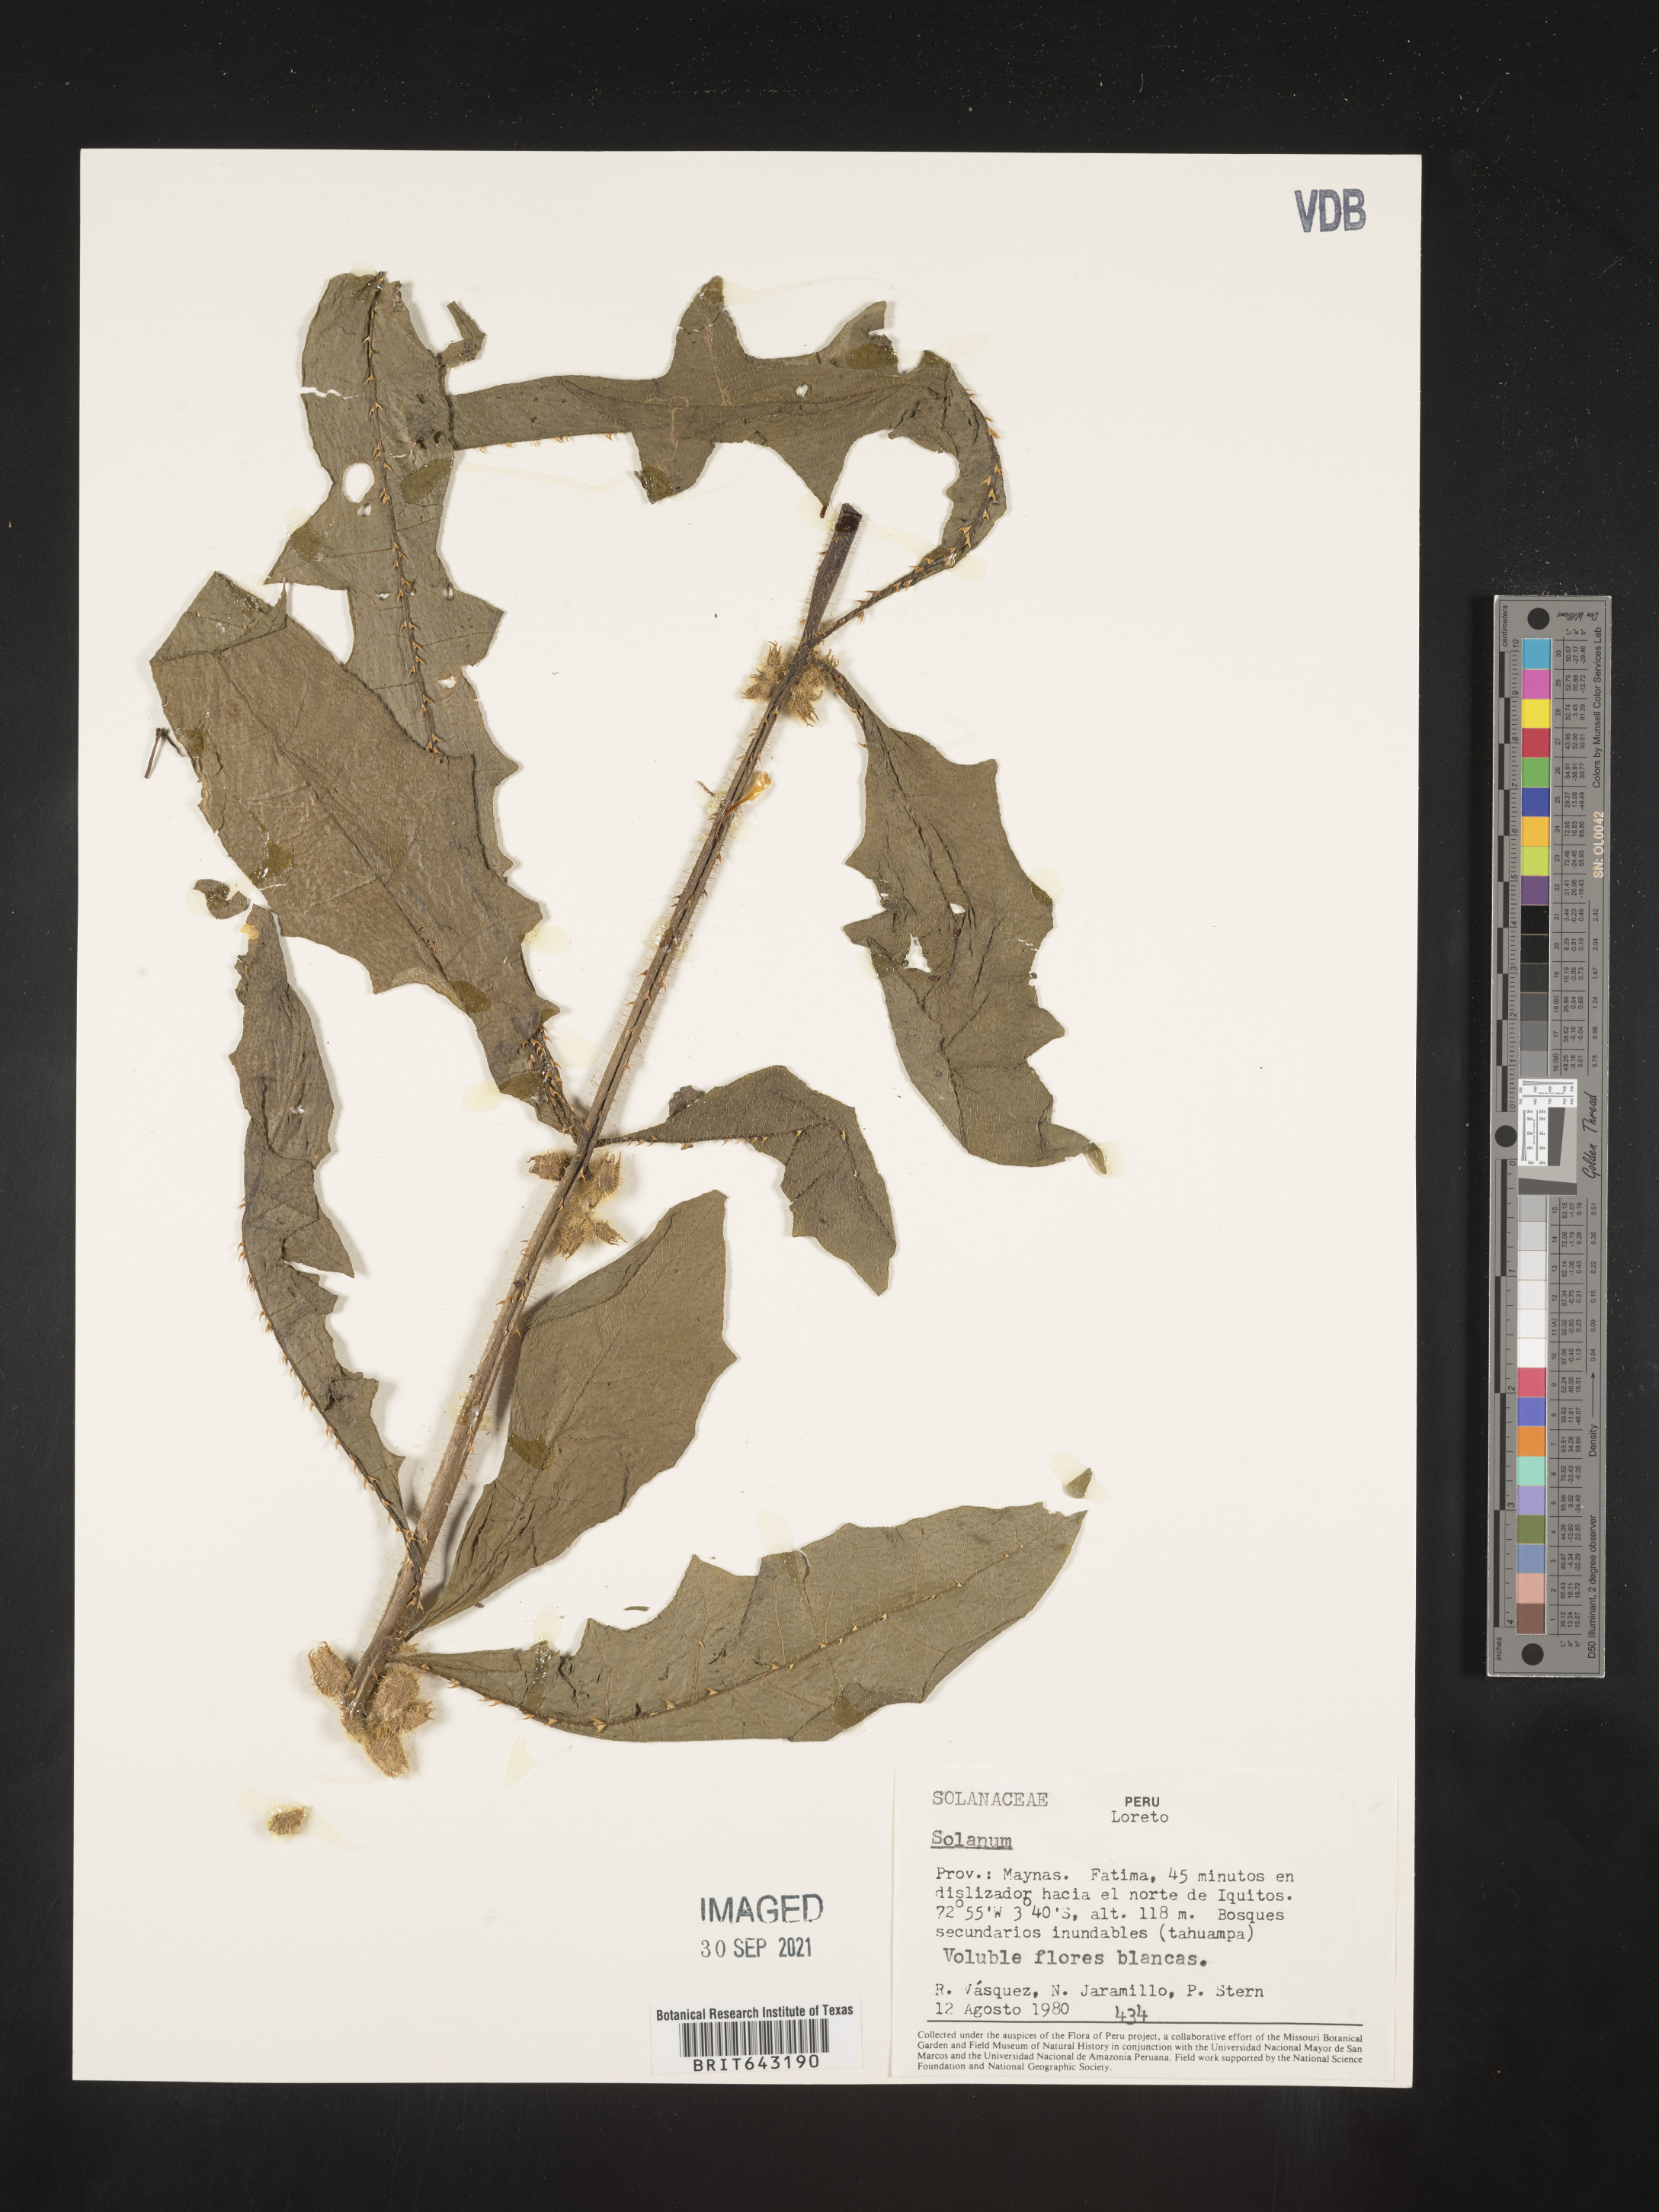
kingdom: Plantae
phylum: Tracheophyta
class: Magnoliopsida
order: Solanales
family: Solanaceae
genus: Solanum
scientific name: Solanum
